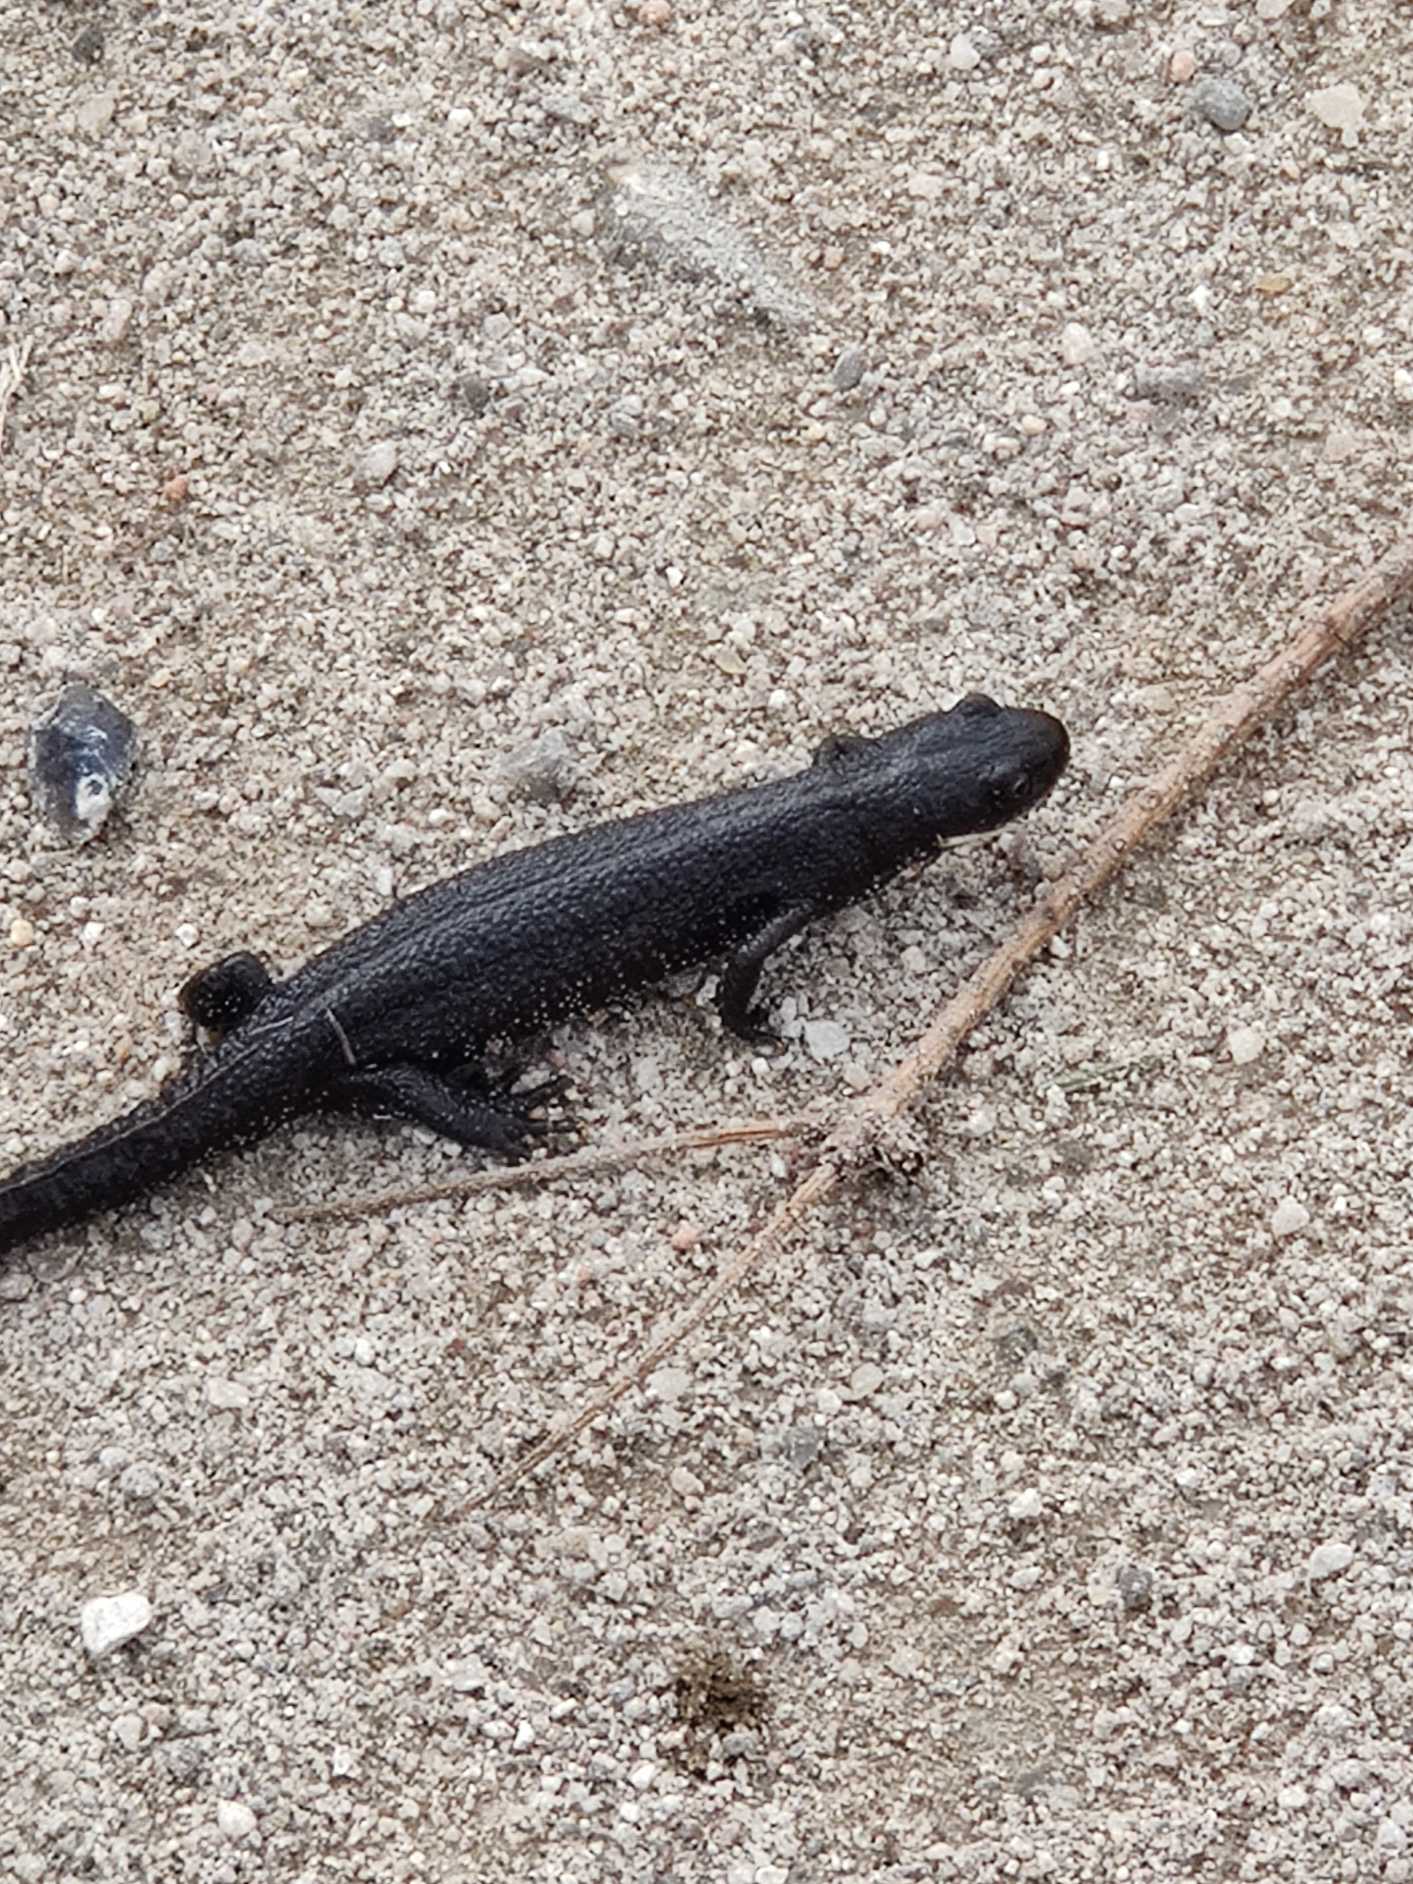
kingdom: Animalia
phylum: Chordata
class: Amphibia
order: Caudata
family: Salamandridae
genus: Triturus
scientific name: Triturus cristatus
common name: Stor vandsalamander
